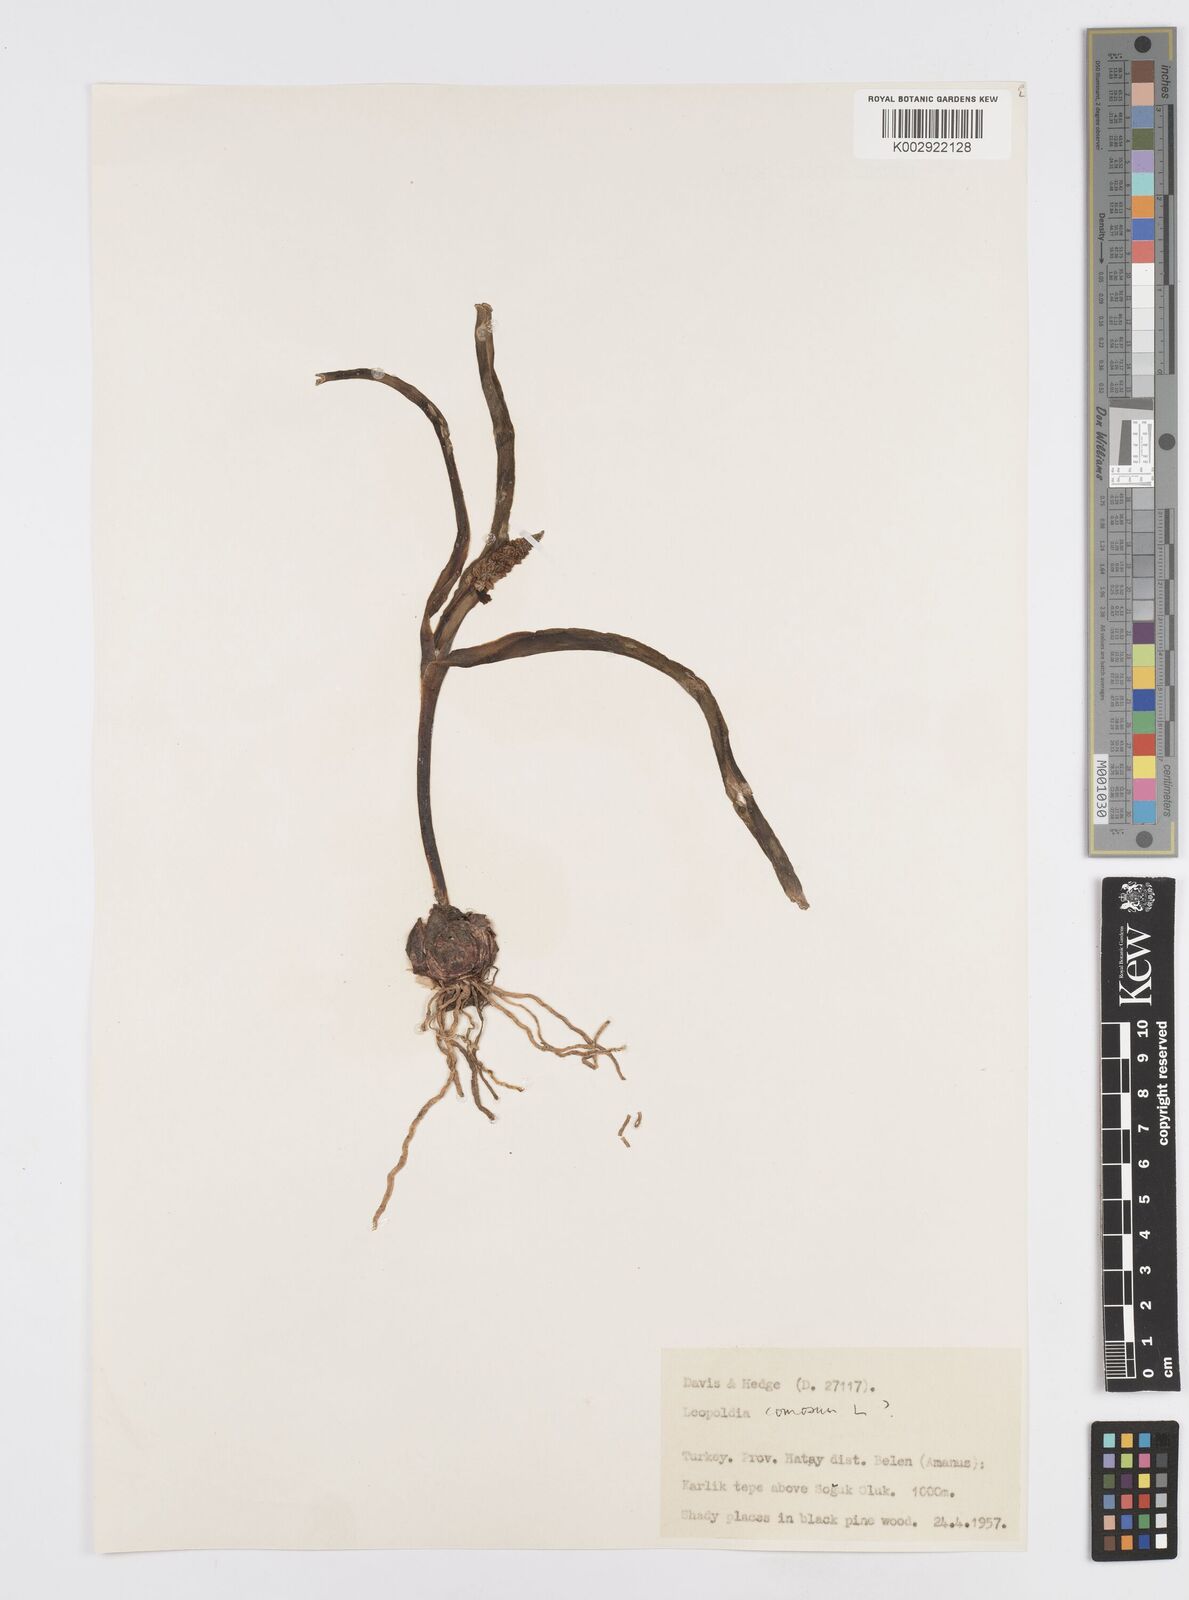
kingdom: Plantae
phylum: Tracheophyta
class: Liliopsida
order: Asparagales
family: Asparagaceae
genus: Muscari
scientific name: Muscari comosum
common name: Tassel hyacinth
